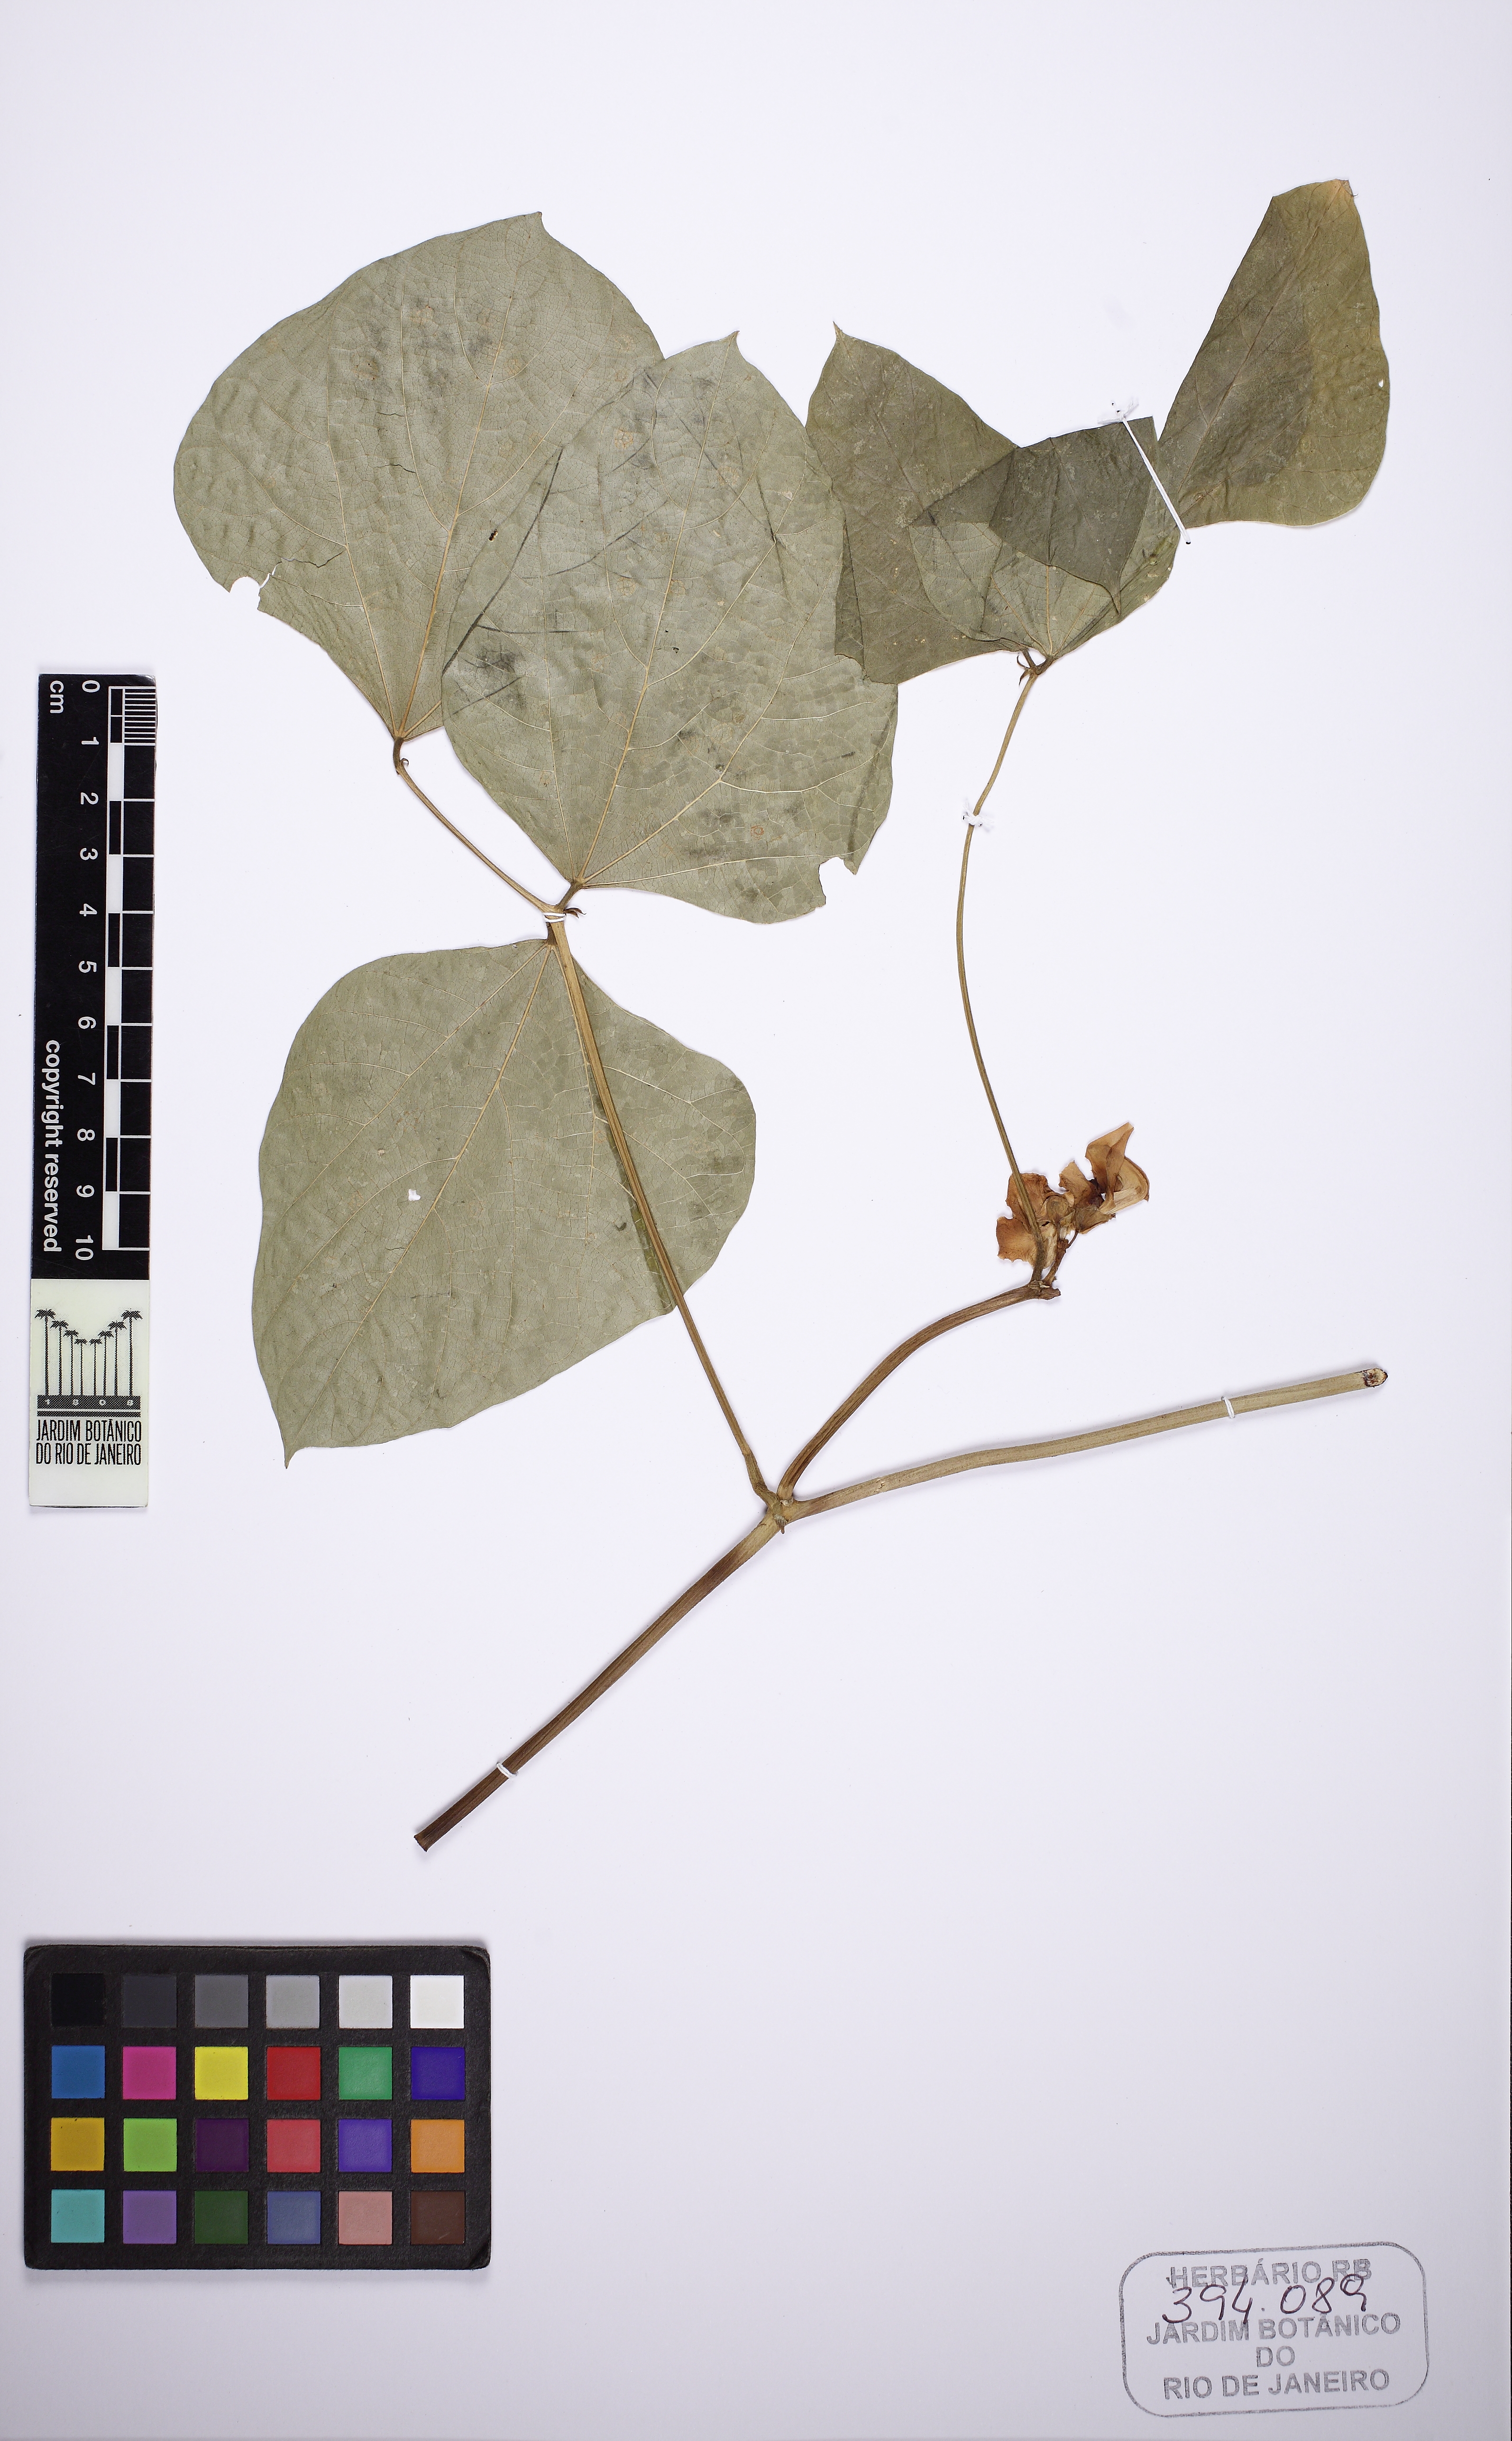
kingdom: Plantae
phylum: Tracheophyta
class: Magnoliopsida
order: Fabales
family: Fabaceae
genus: Lablab
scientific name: Lablab purpureus
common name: Lablab-bean
